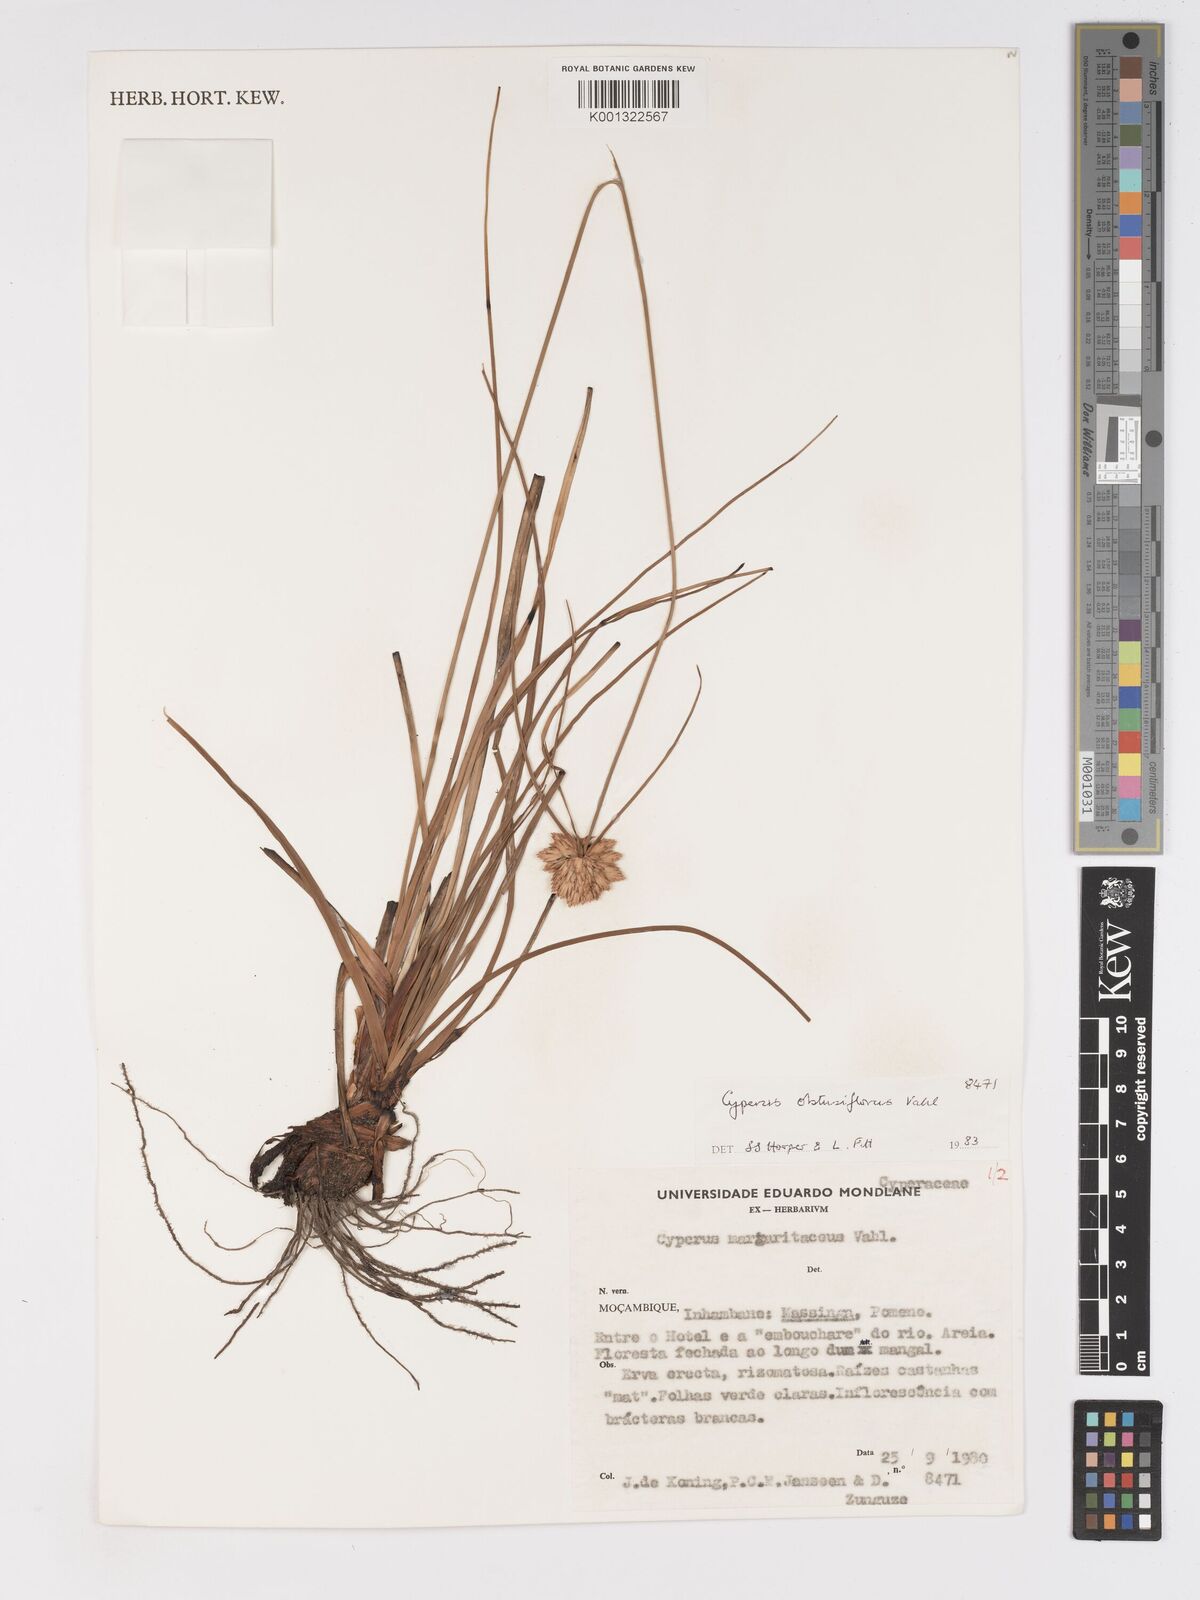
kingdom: Plantae
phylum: Tracheophyta
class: Liliopsida
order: Poales
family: Cyperaceae
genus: Cyperus
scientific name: Cyperus niveus
